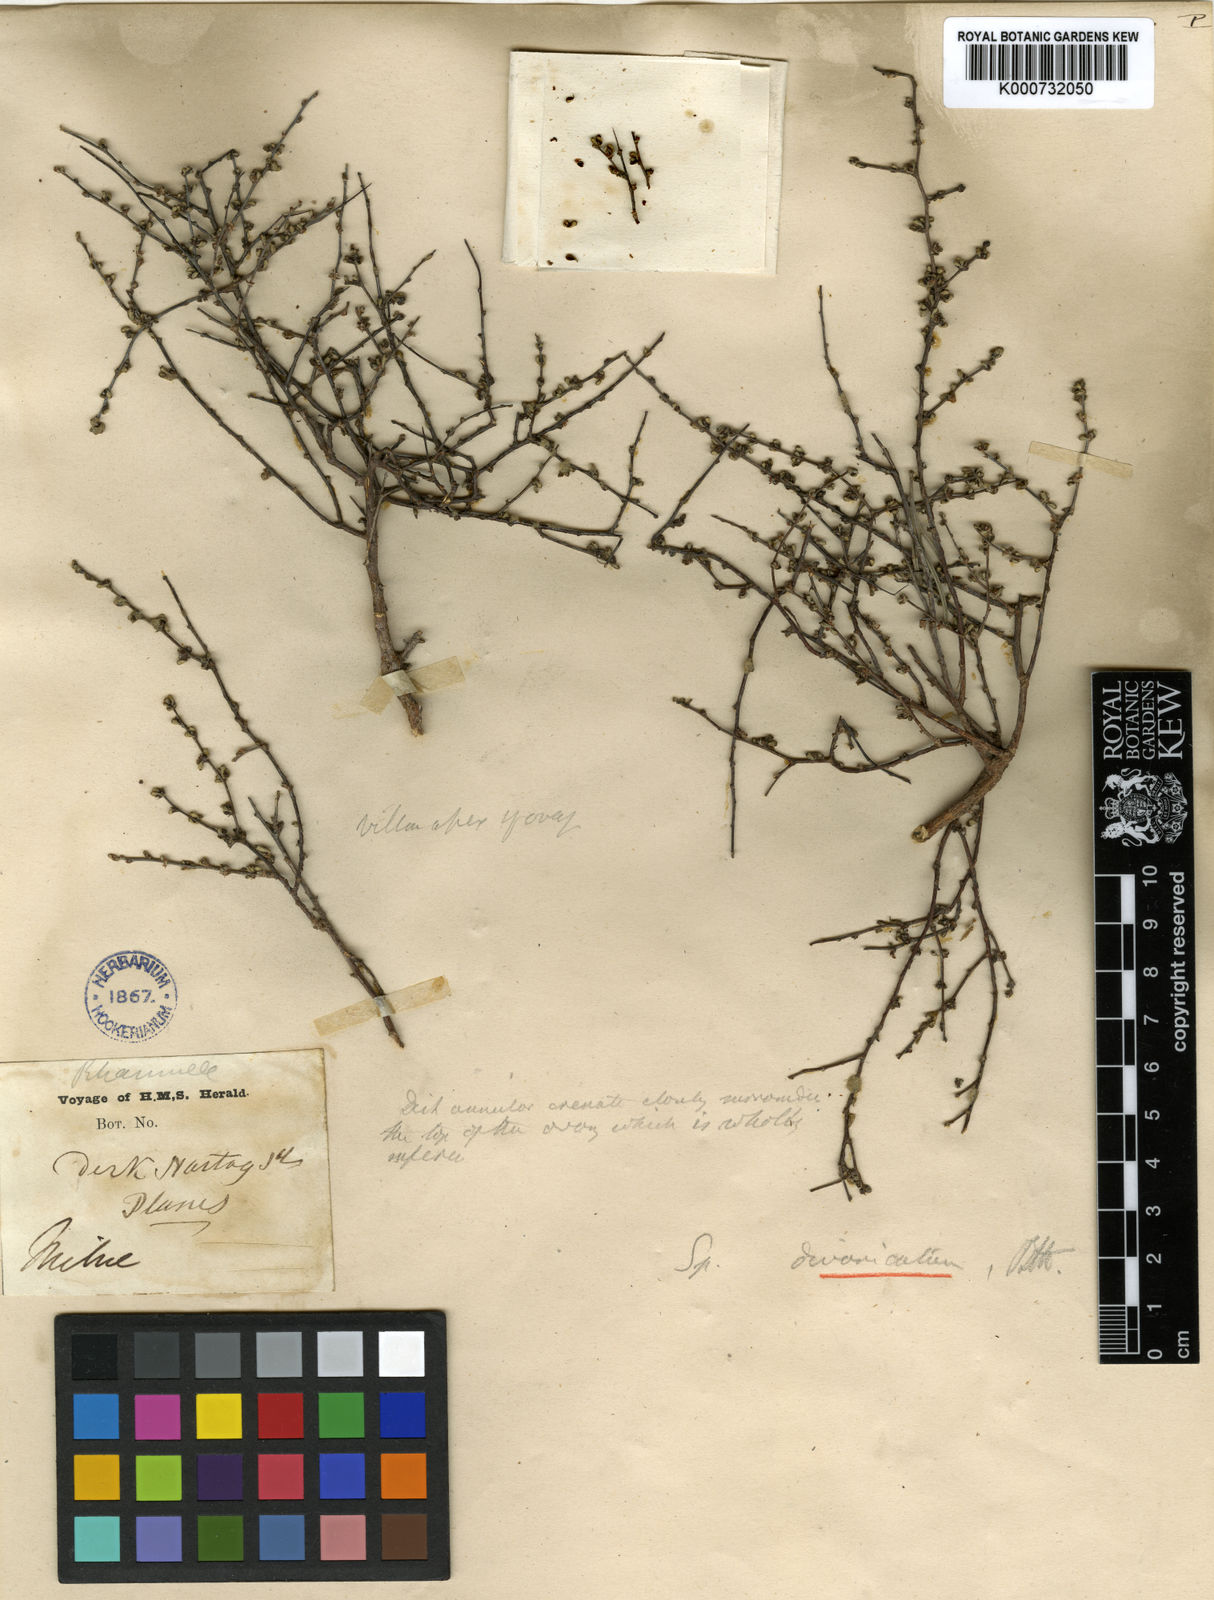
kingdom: Plantae
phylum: Tracheophyta
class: Magnoliopsida
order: Rosales
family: Rhamnaceae
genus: Stenanthemum
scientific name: Stenanthemum divaricatum
